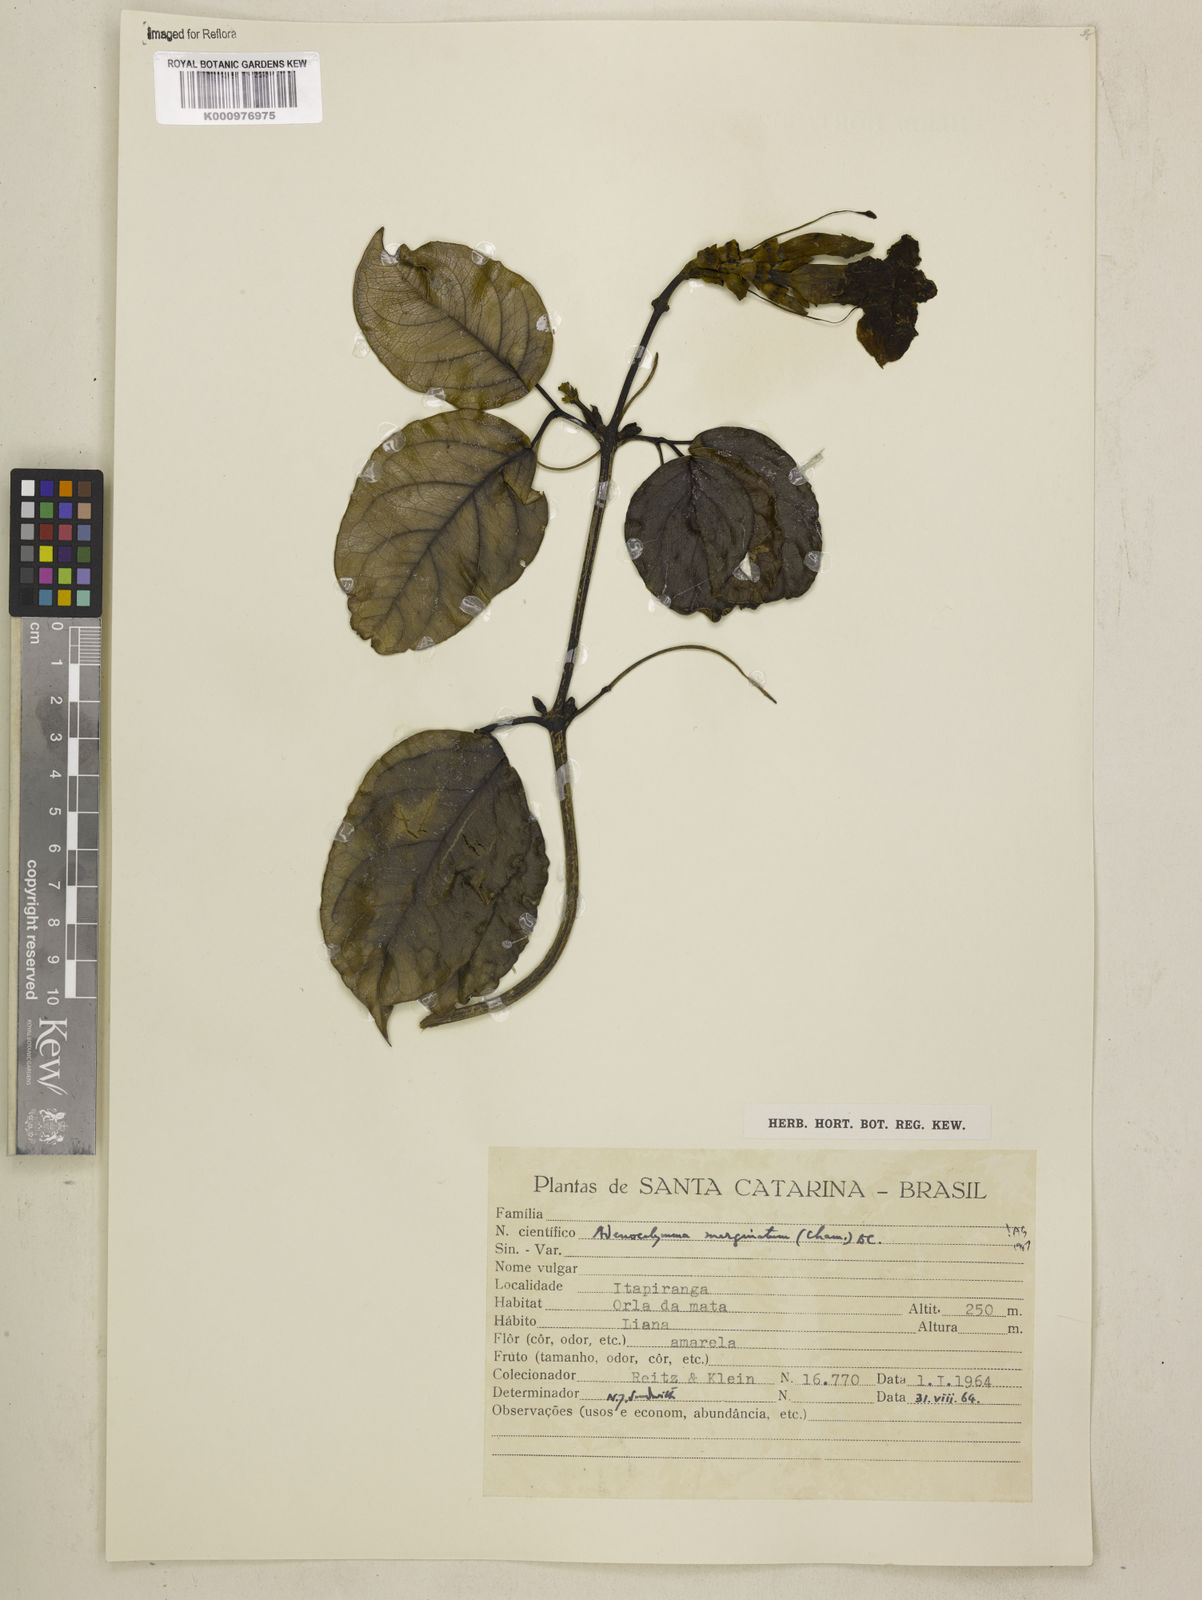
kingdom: Plantae
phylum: Tracheophyta
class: Magnoliopsida
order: Lamiales
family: Bignoniaceae
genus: Adenocalymma
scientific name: Adenocalymma marginatum
